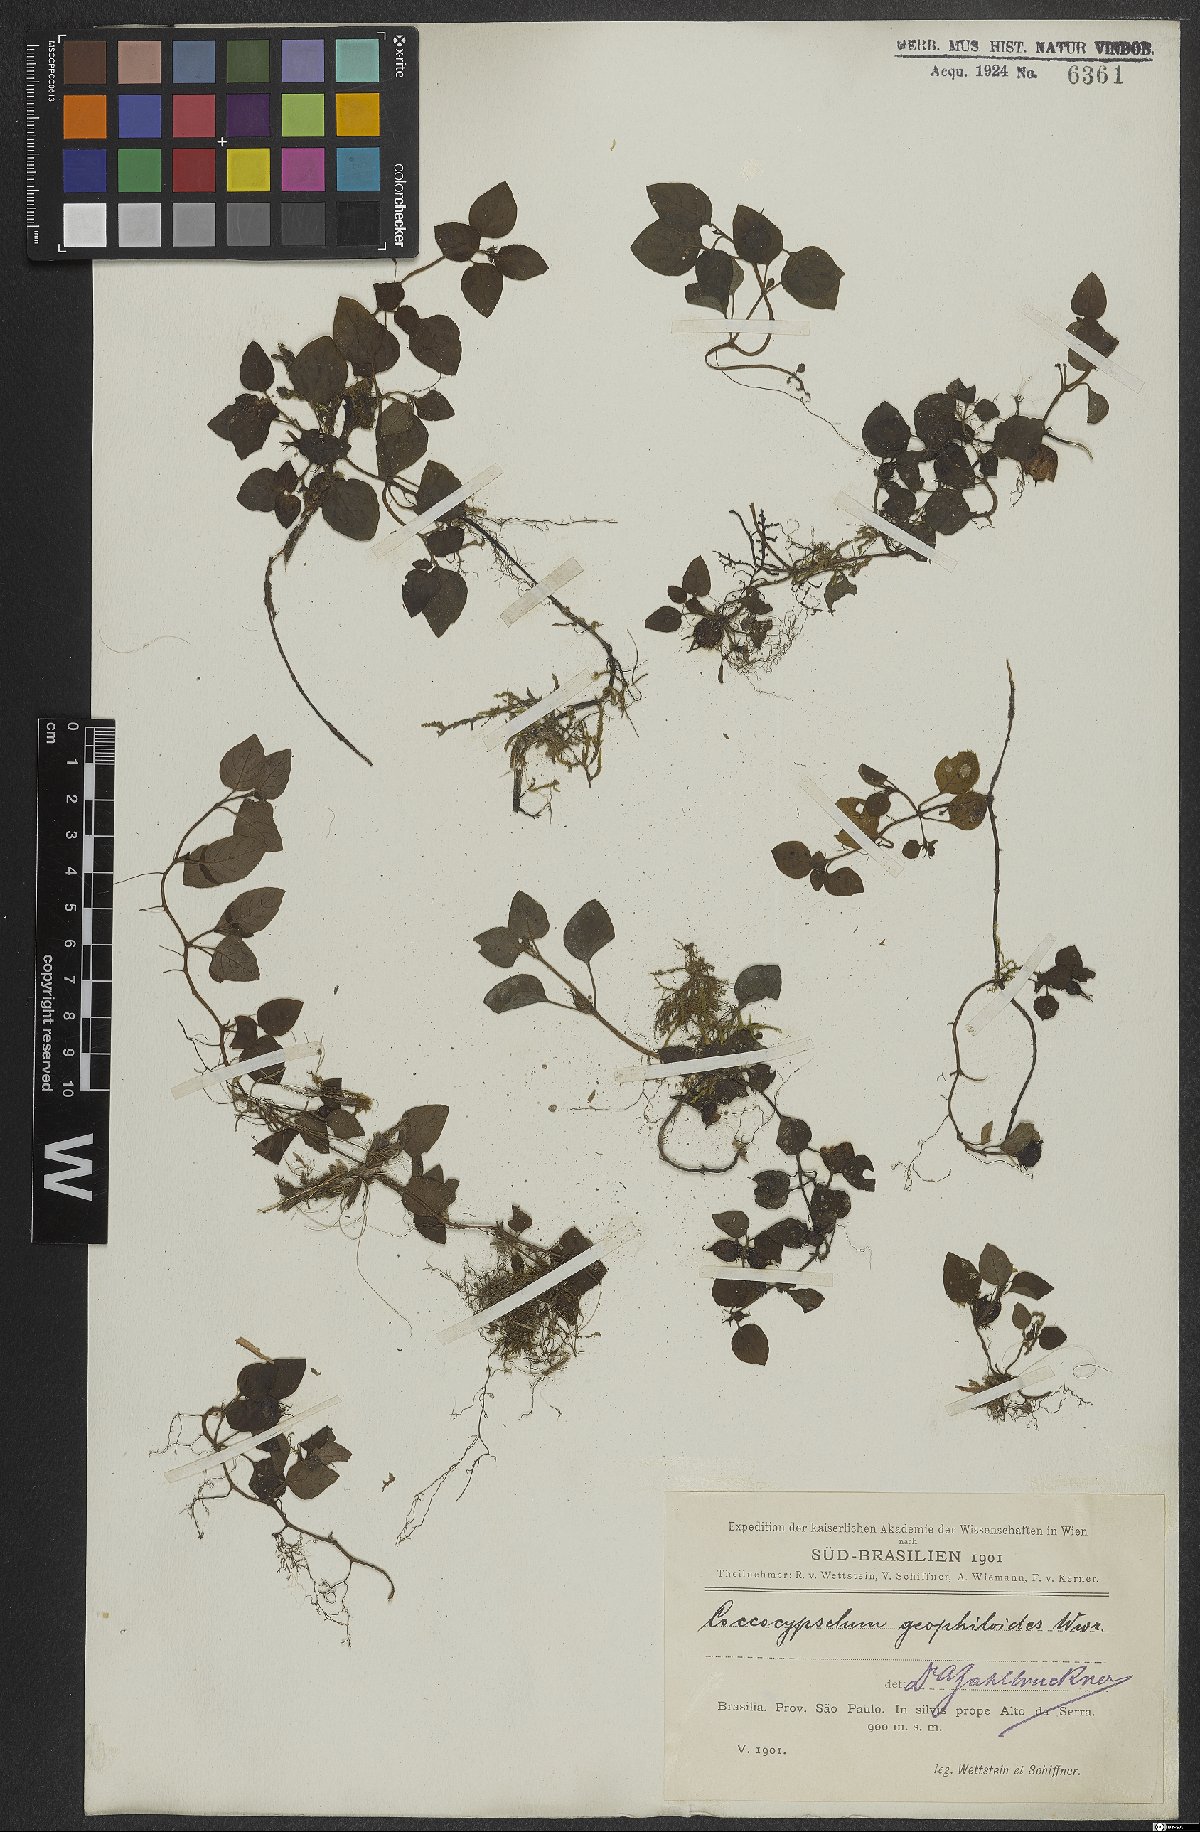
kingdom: Plantae
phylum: Tracheophyta
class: Magnoliopsida
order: Gentianales
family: Rubiaceae
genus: Coccocypselum
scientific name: Coccocypselum geophiloides
